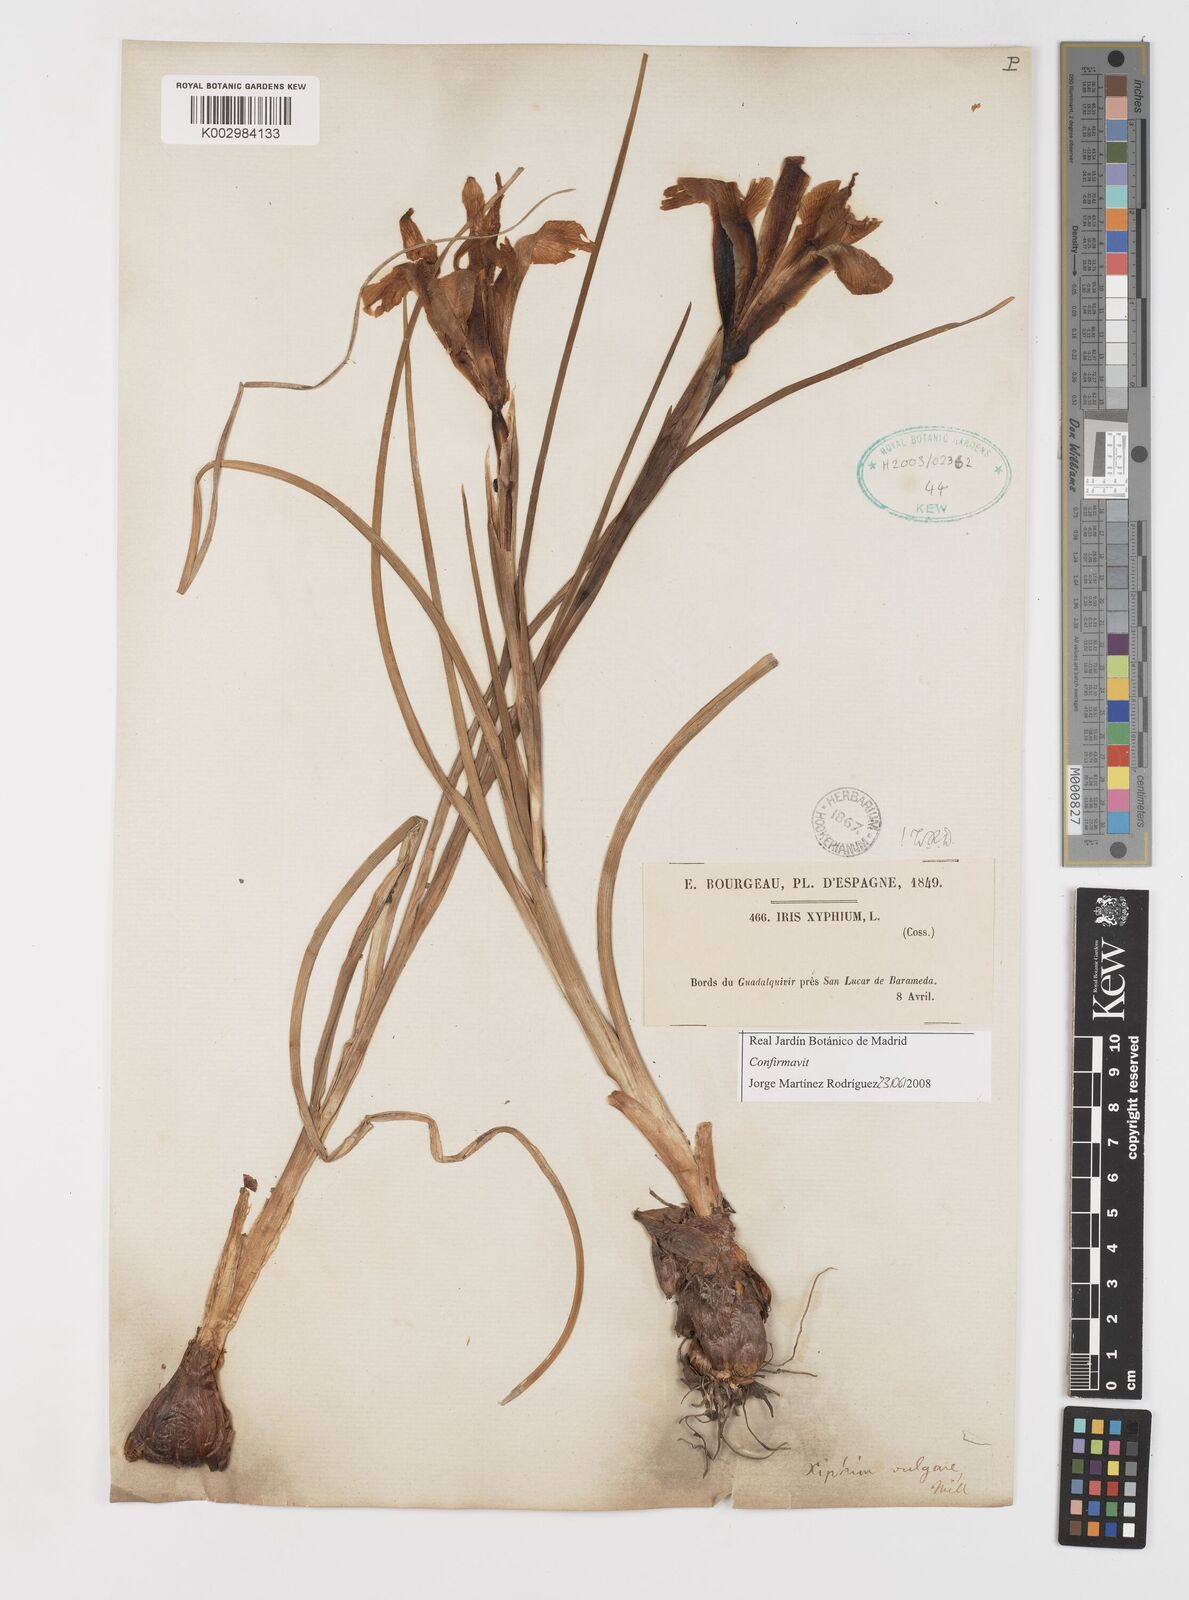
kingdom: Plantae
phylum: Tracheophyta
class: Liliopsida
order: Asparagales
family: Iridaceae
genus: Iris
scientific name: Iris xiphium
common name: Spanish iris
